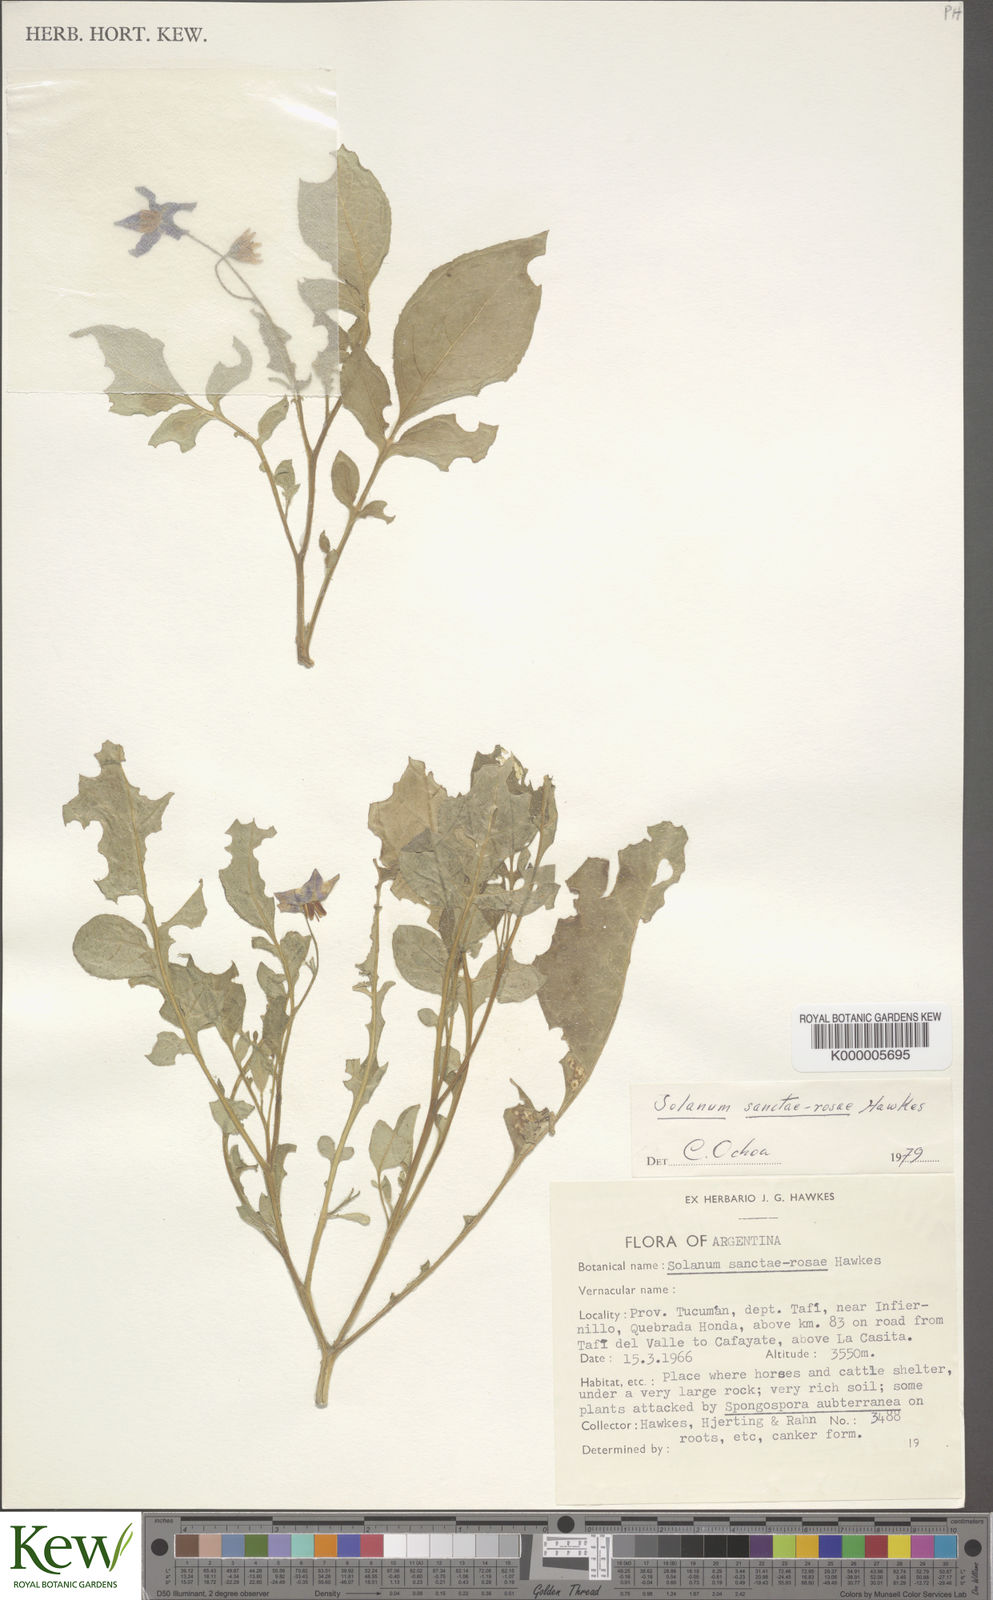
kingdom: Plantae
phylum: Tracheophyta
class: Magnoliopsida
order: Solanales
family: Solanaceae
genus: Solanum
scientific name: Solanum boliviense
